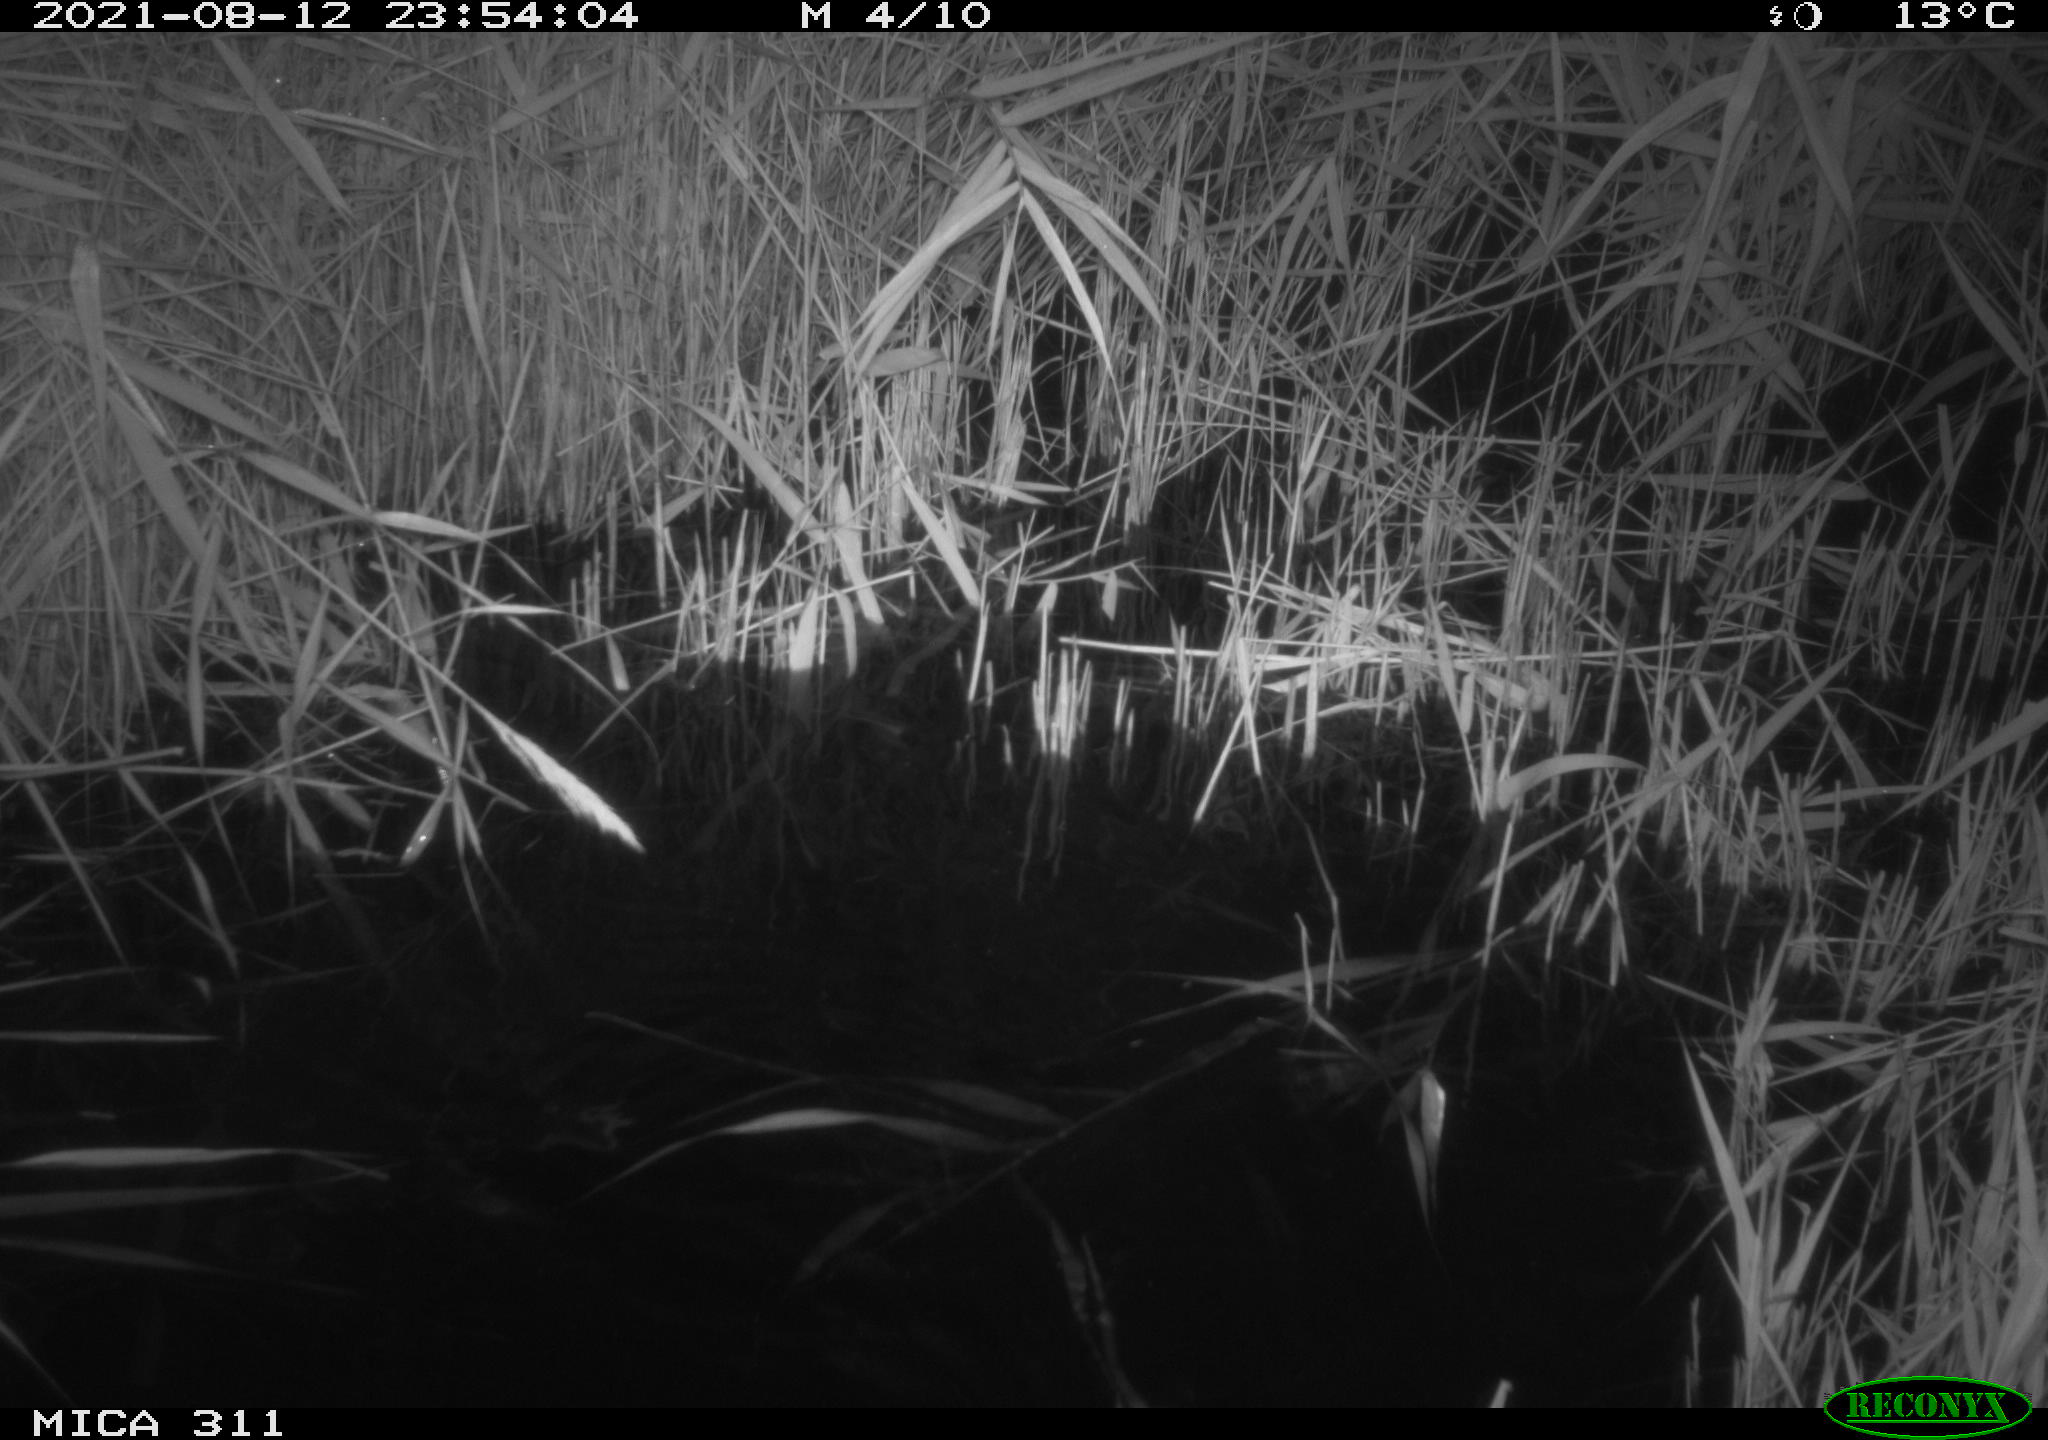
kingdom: Animalia
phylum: Chordata
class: Mammalia
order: Rodentia
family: Muridae
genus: Rattus
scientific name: Rattus norvegicus
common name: Brown rat
